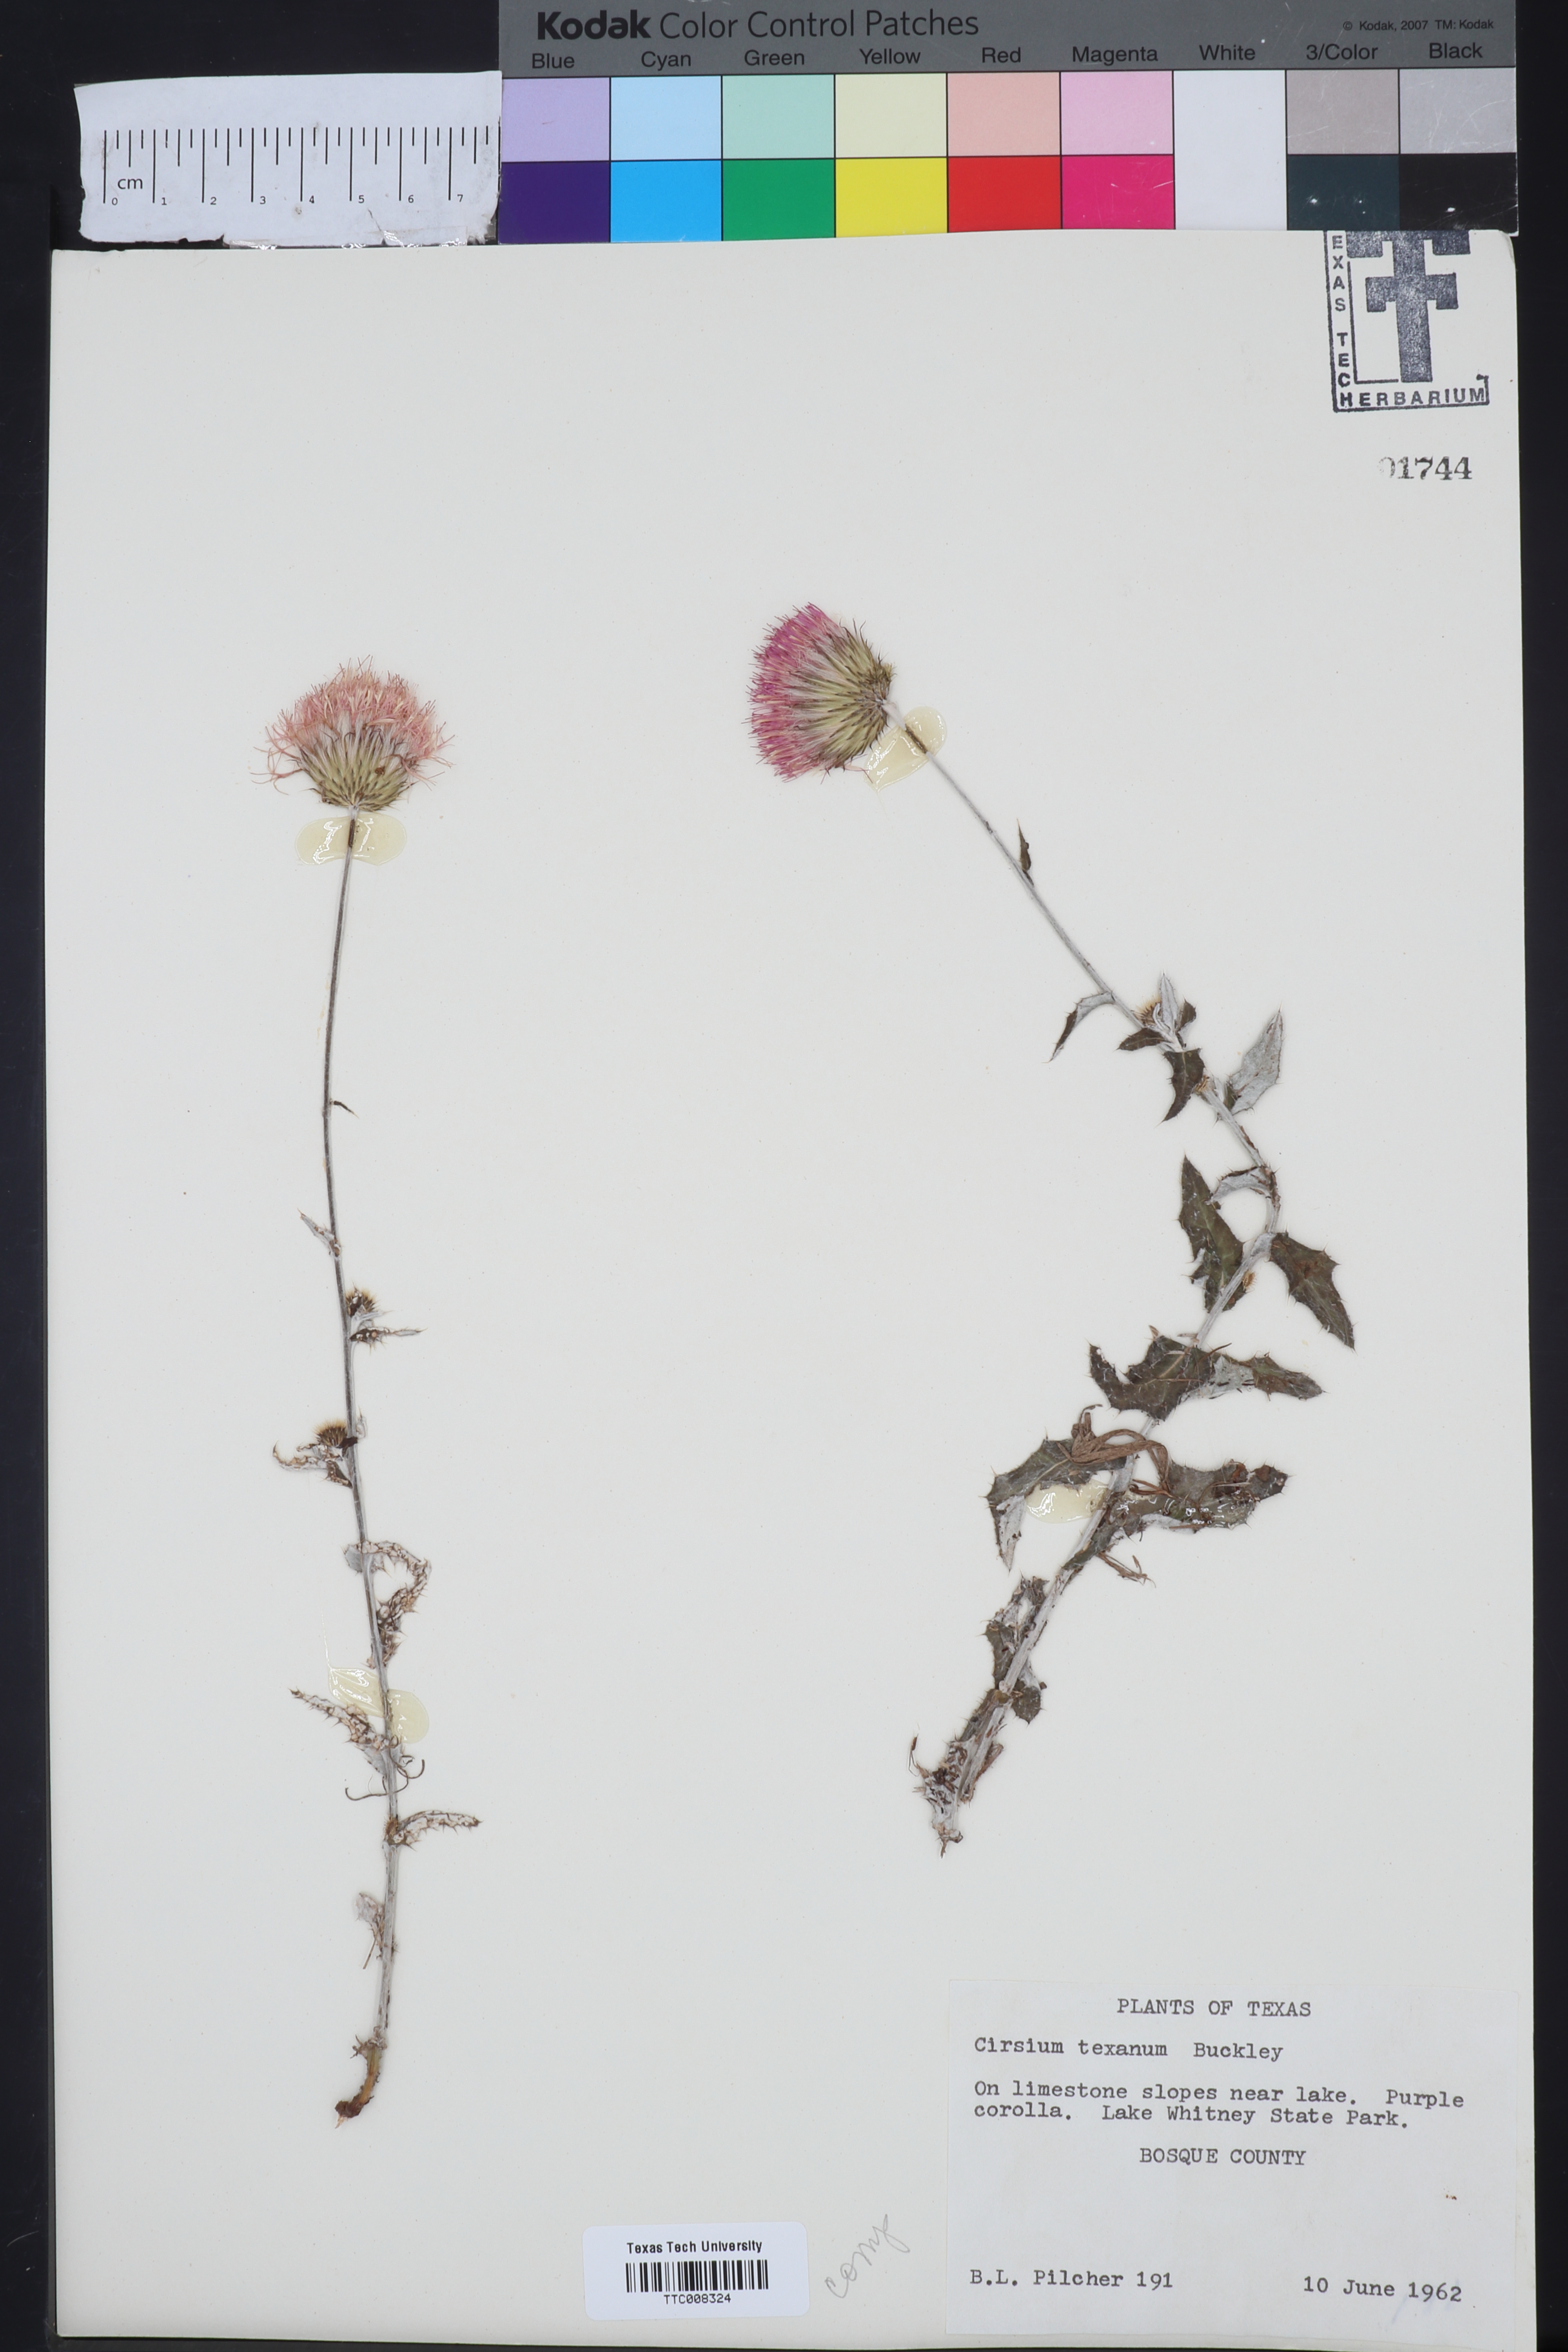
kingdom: Plantae
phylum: Tracheophyta
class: Magnoliopsida
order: Asterales
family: Asteraceae
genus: Cirsium
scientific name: Cirsium texanum
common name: Texas purple thistle
